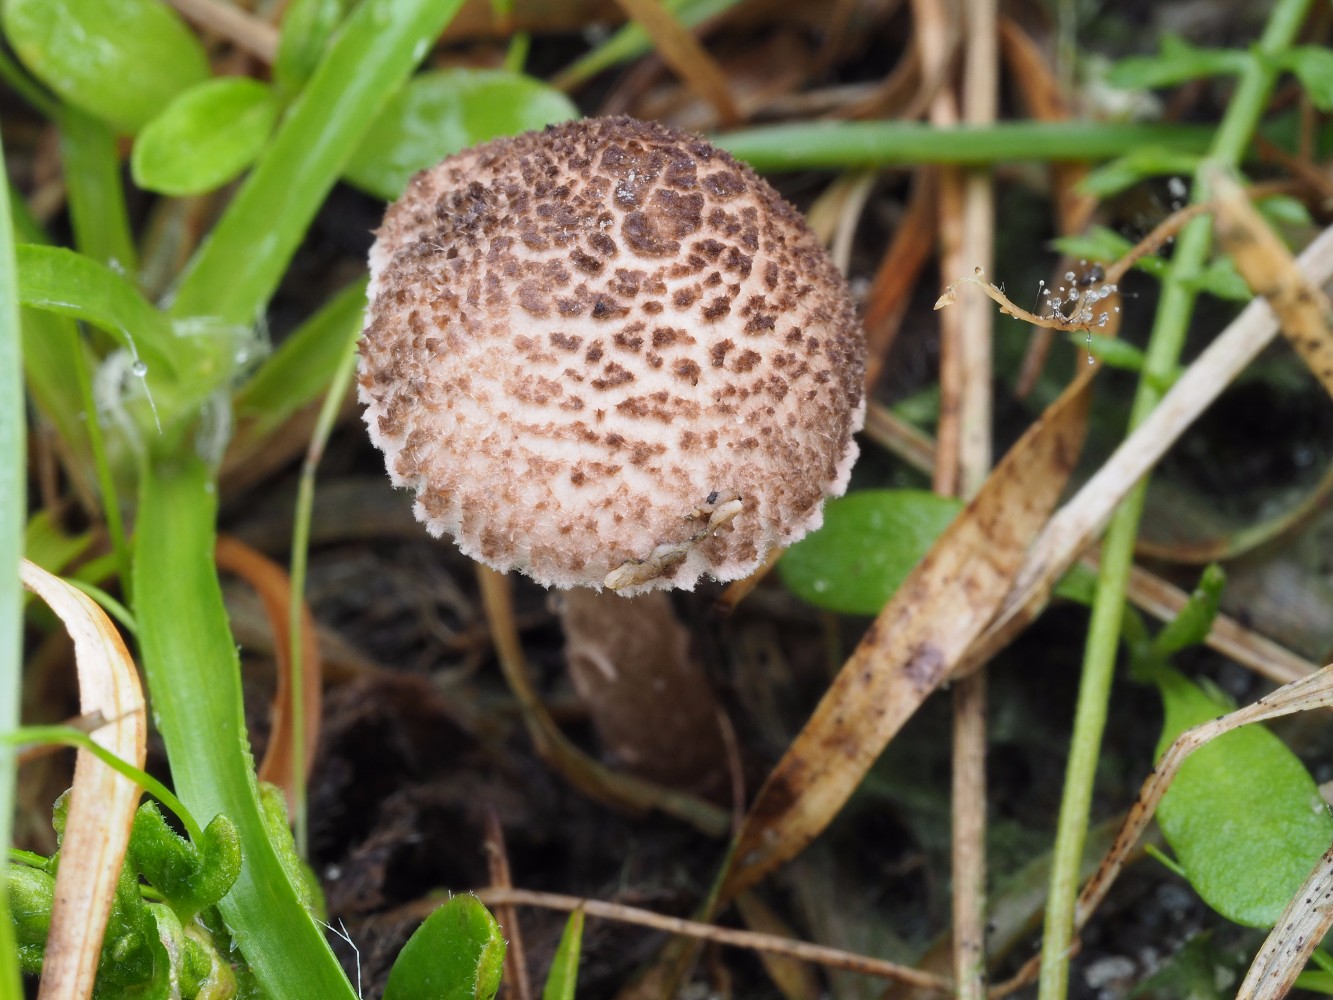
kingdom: Fungi
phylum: Basidiomycota
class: Agaricomycetes
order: Agaricales
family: Agaricaceae
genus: Lepiota
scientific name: Lepiota pseudolilacea
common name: gråbrun parasolhat
